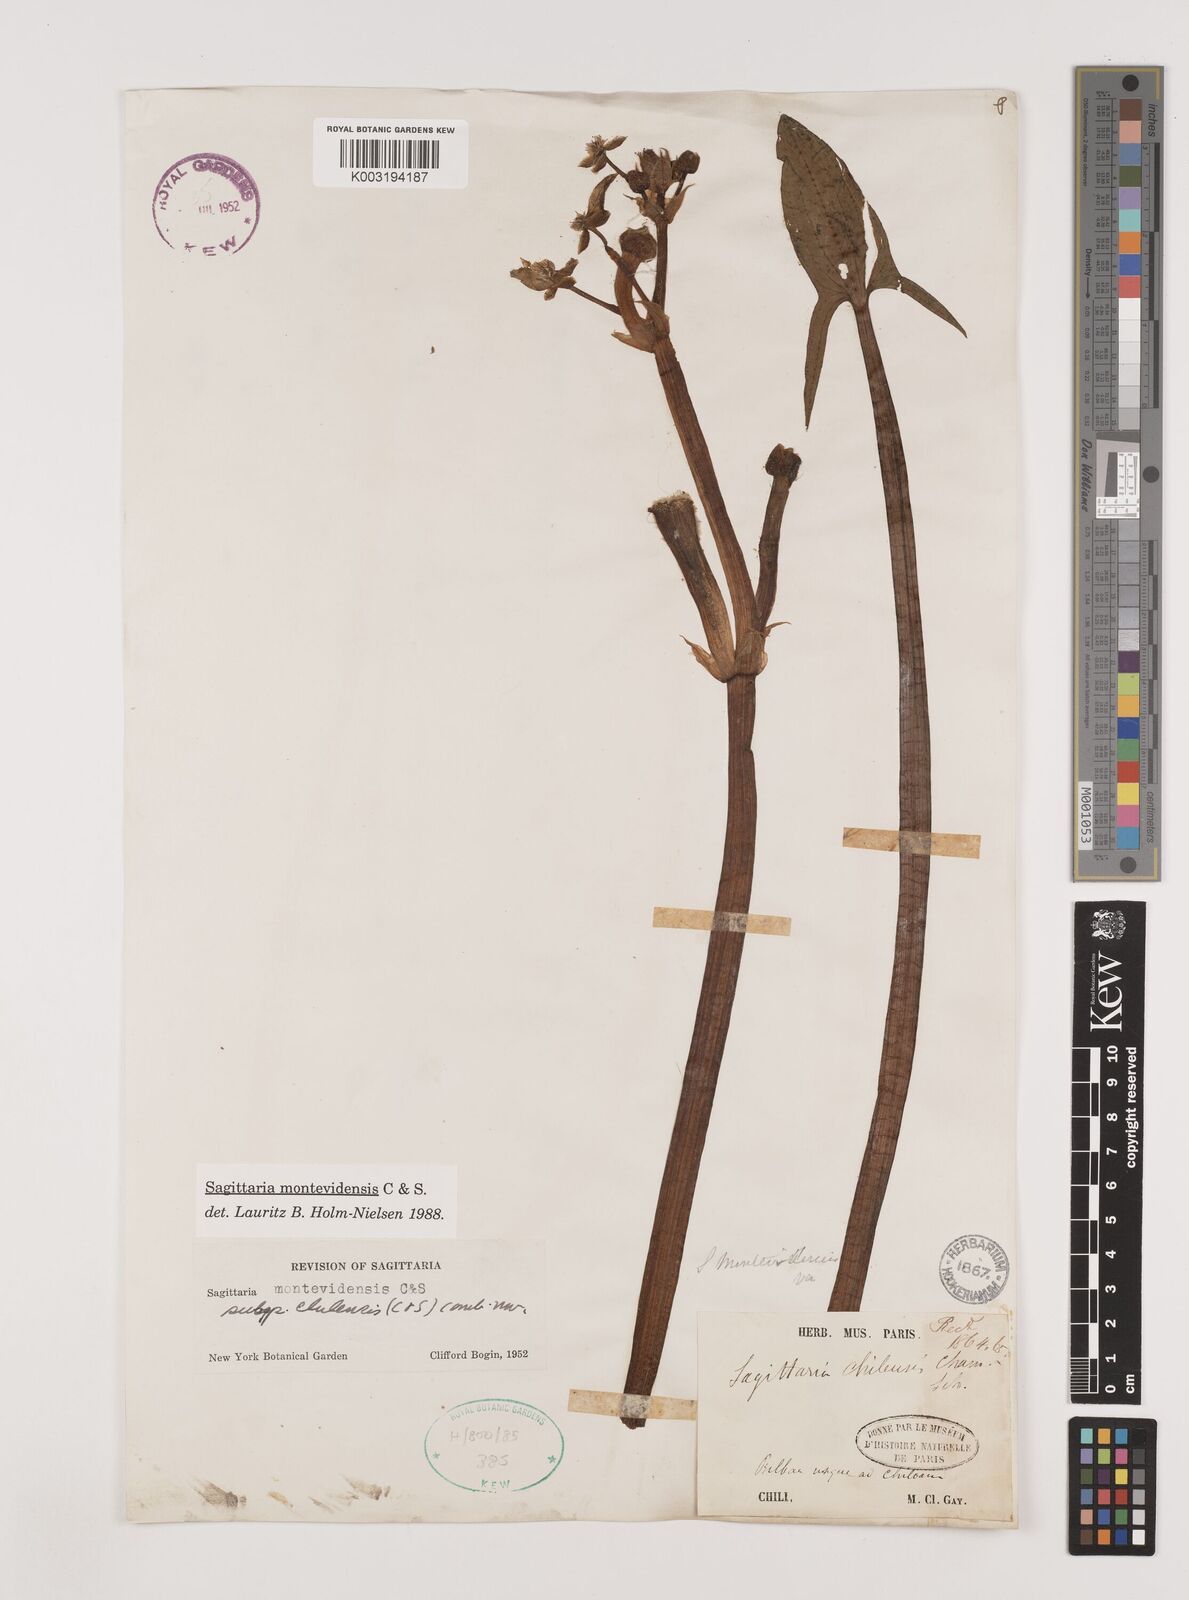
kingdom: Plantae
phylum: Tracheophyta
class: Liliopsida
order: Alismatales
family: Alismataceae
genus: Sagittaria
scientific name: Sagittaria montevidensis
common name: Giant arrowhead
